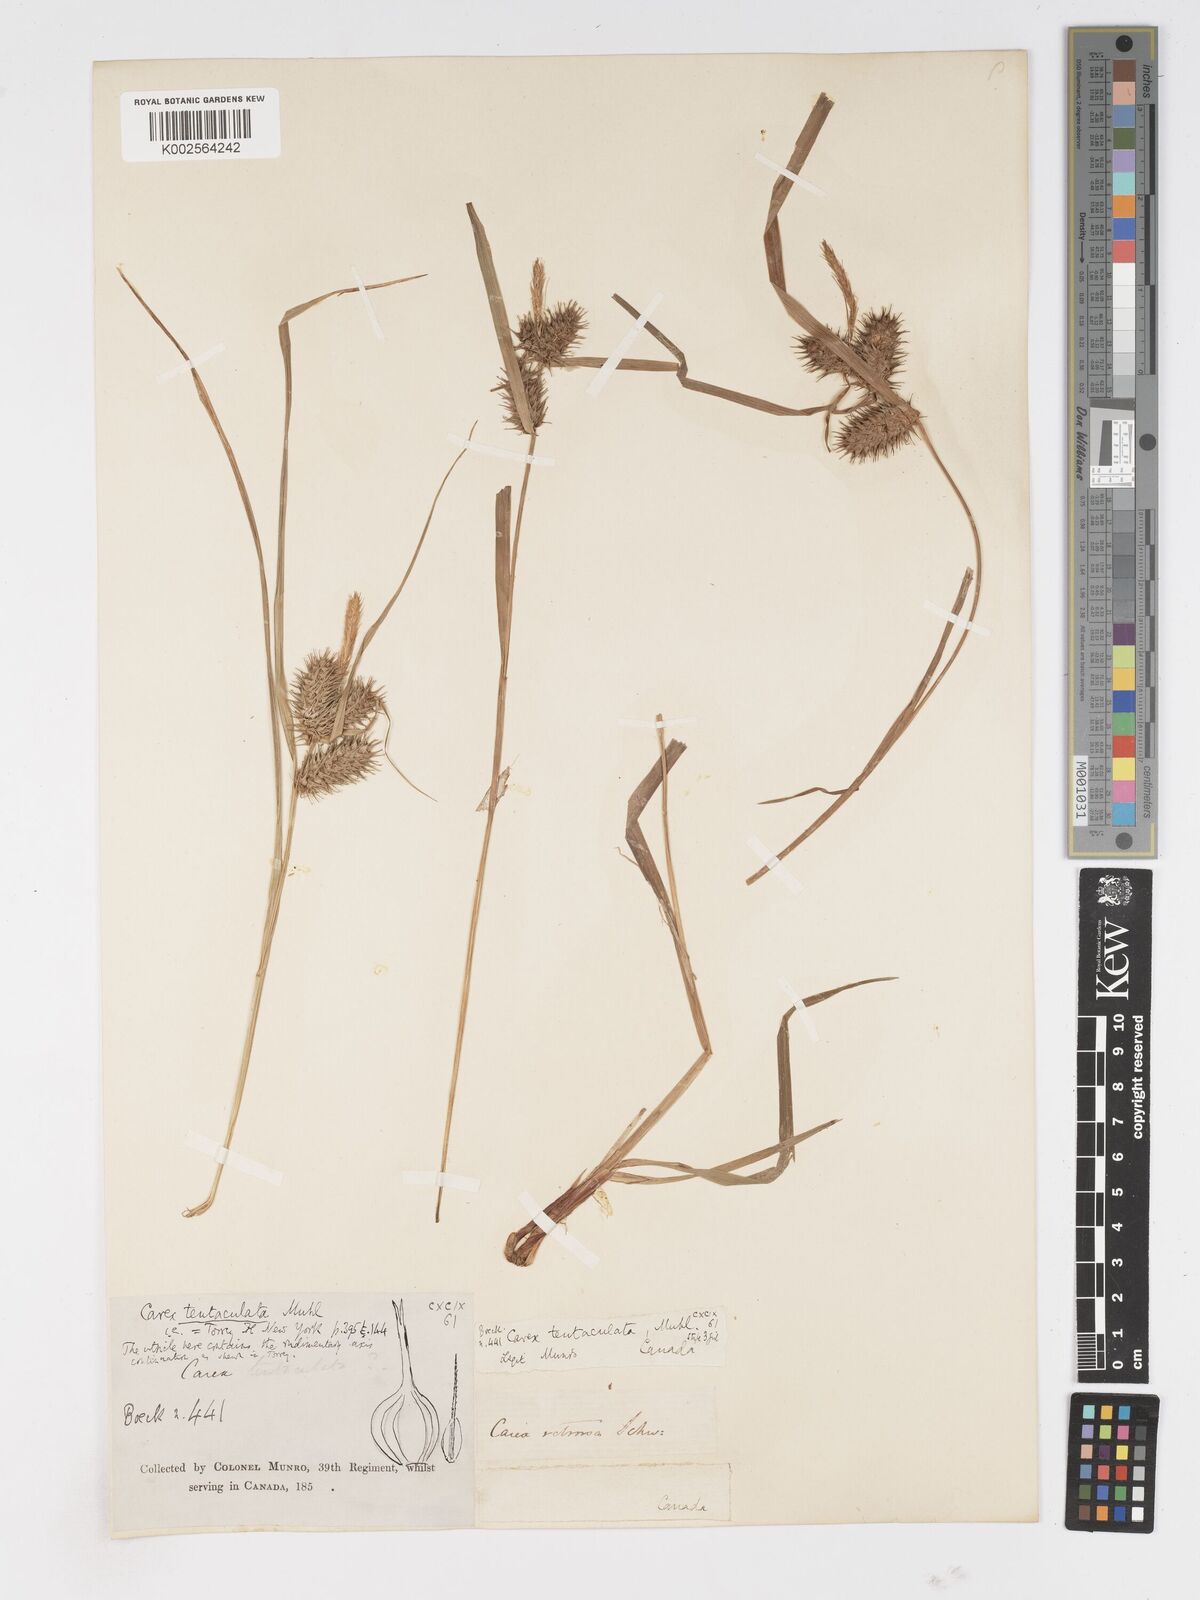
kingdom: Plantae
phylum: Tracheophyta
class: Liliopsida
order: Poales
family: Cyperaceae
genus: Carex
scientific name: Carex lurida
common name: Sallow sedge
